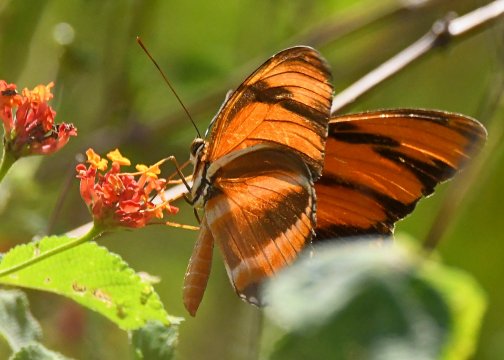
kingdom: Animalia
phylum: Arthropoda
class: Insecta
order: Lepidoptera
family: Nymphalidae
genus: Dryadula
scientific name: Dryadula phaetusa
